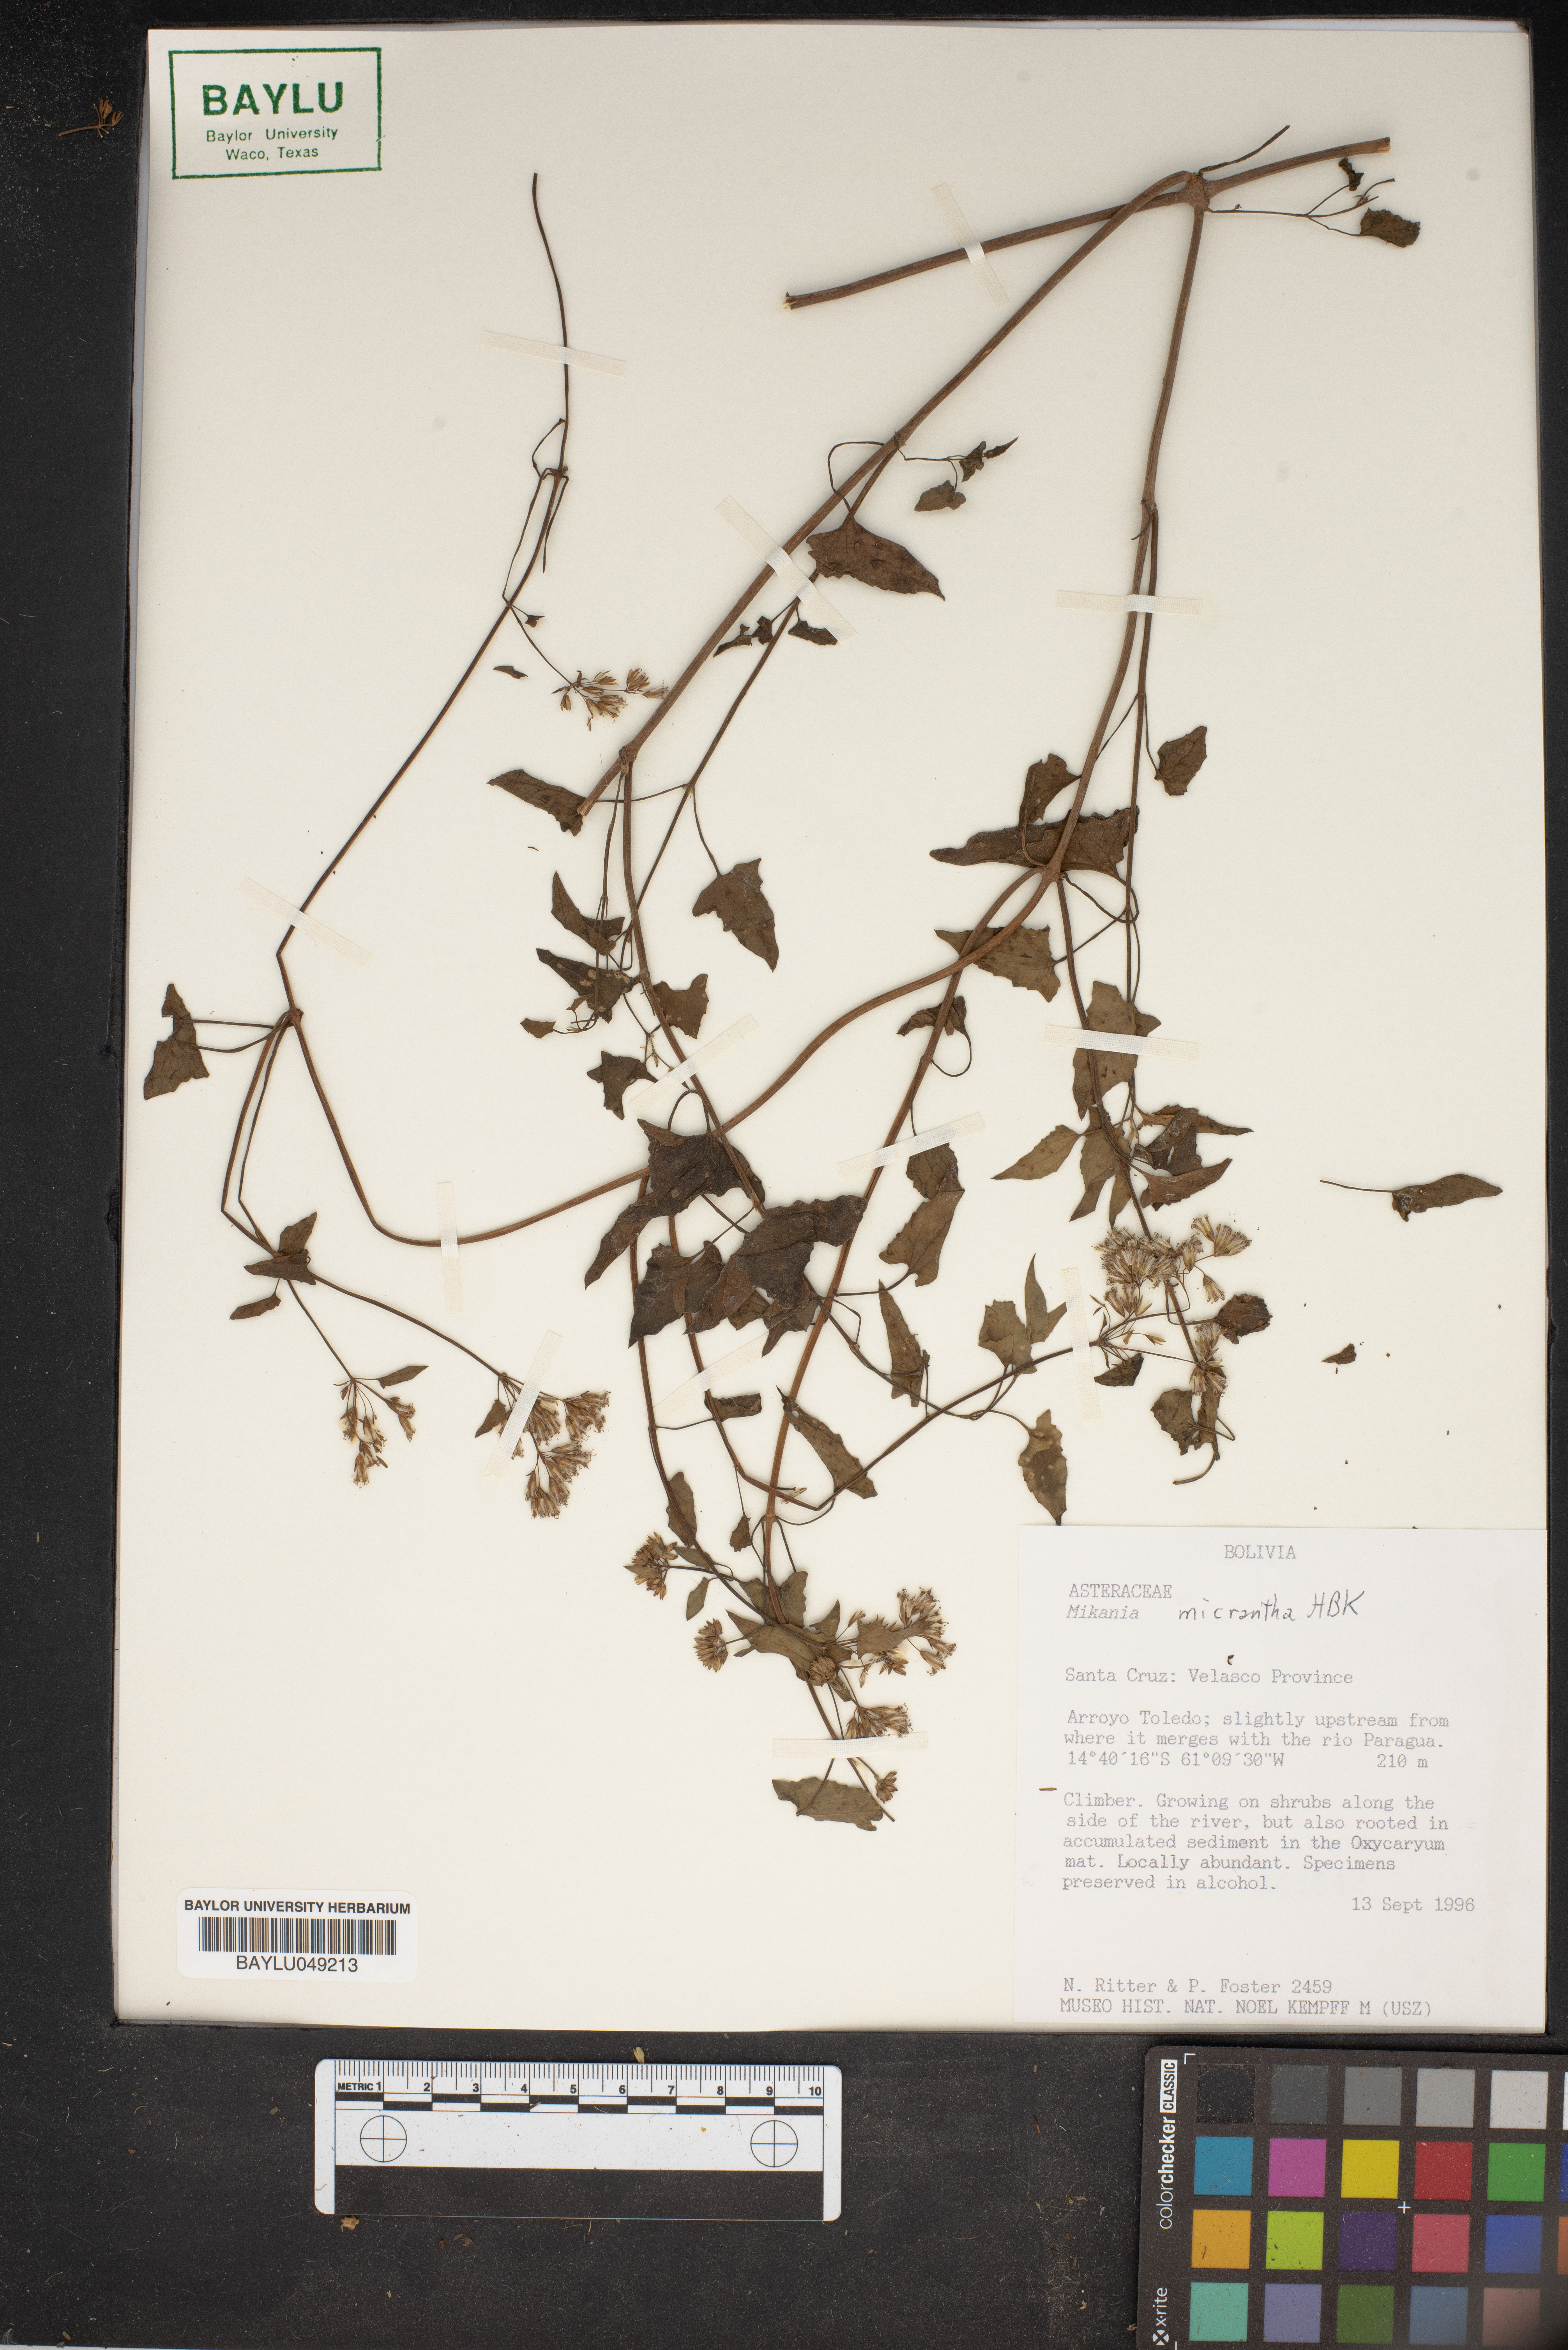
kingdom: Plantae
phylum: Tracheophyta
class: Magnoliopsida
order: Asterales
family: Asteraceae
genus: Mikania
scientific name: Mikania micrantha
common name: Mile-a-minute
